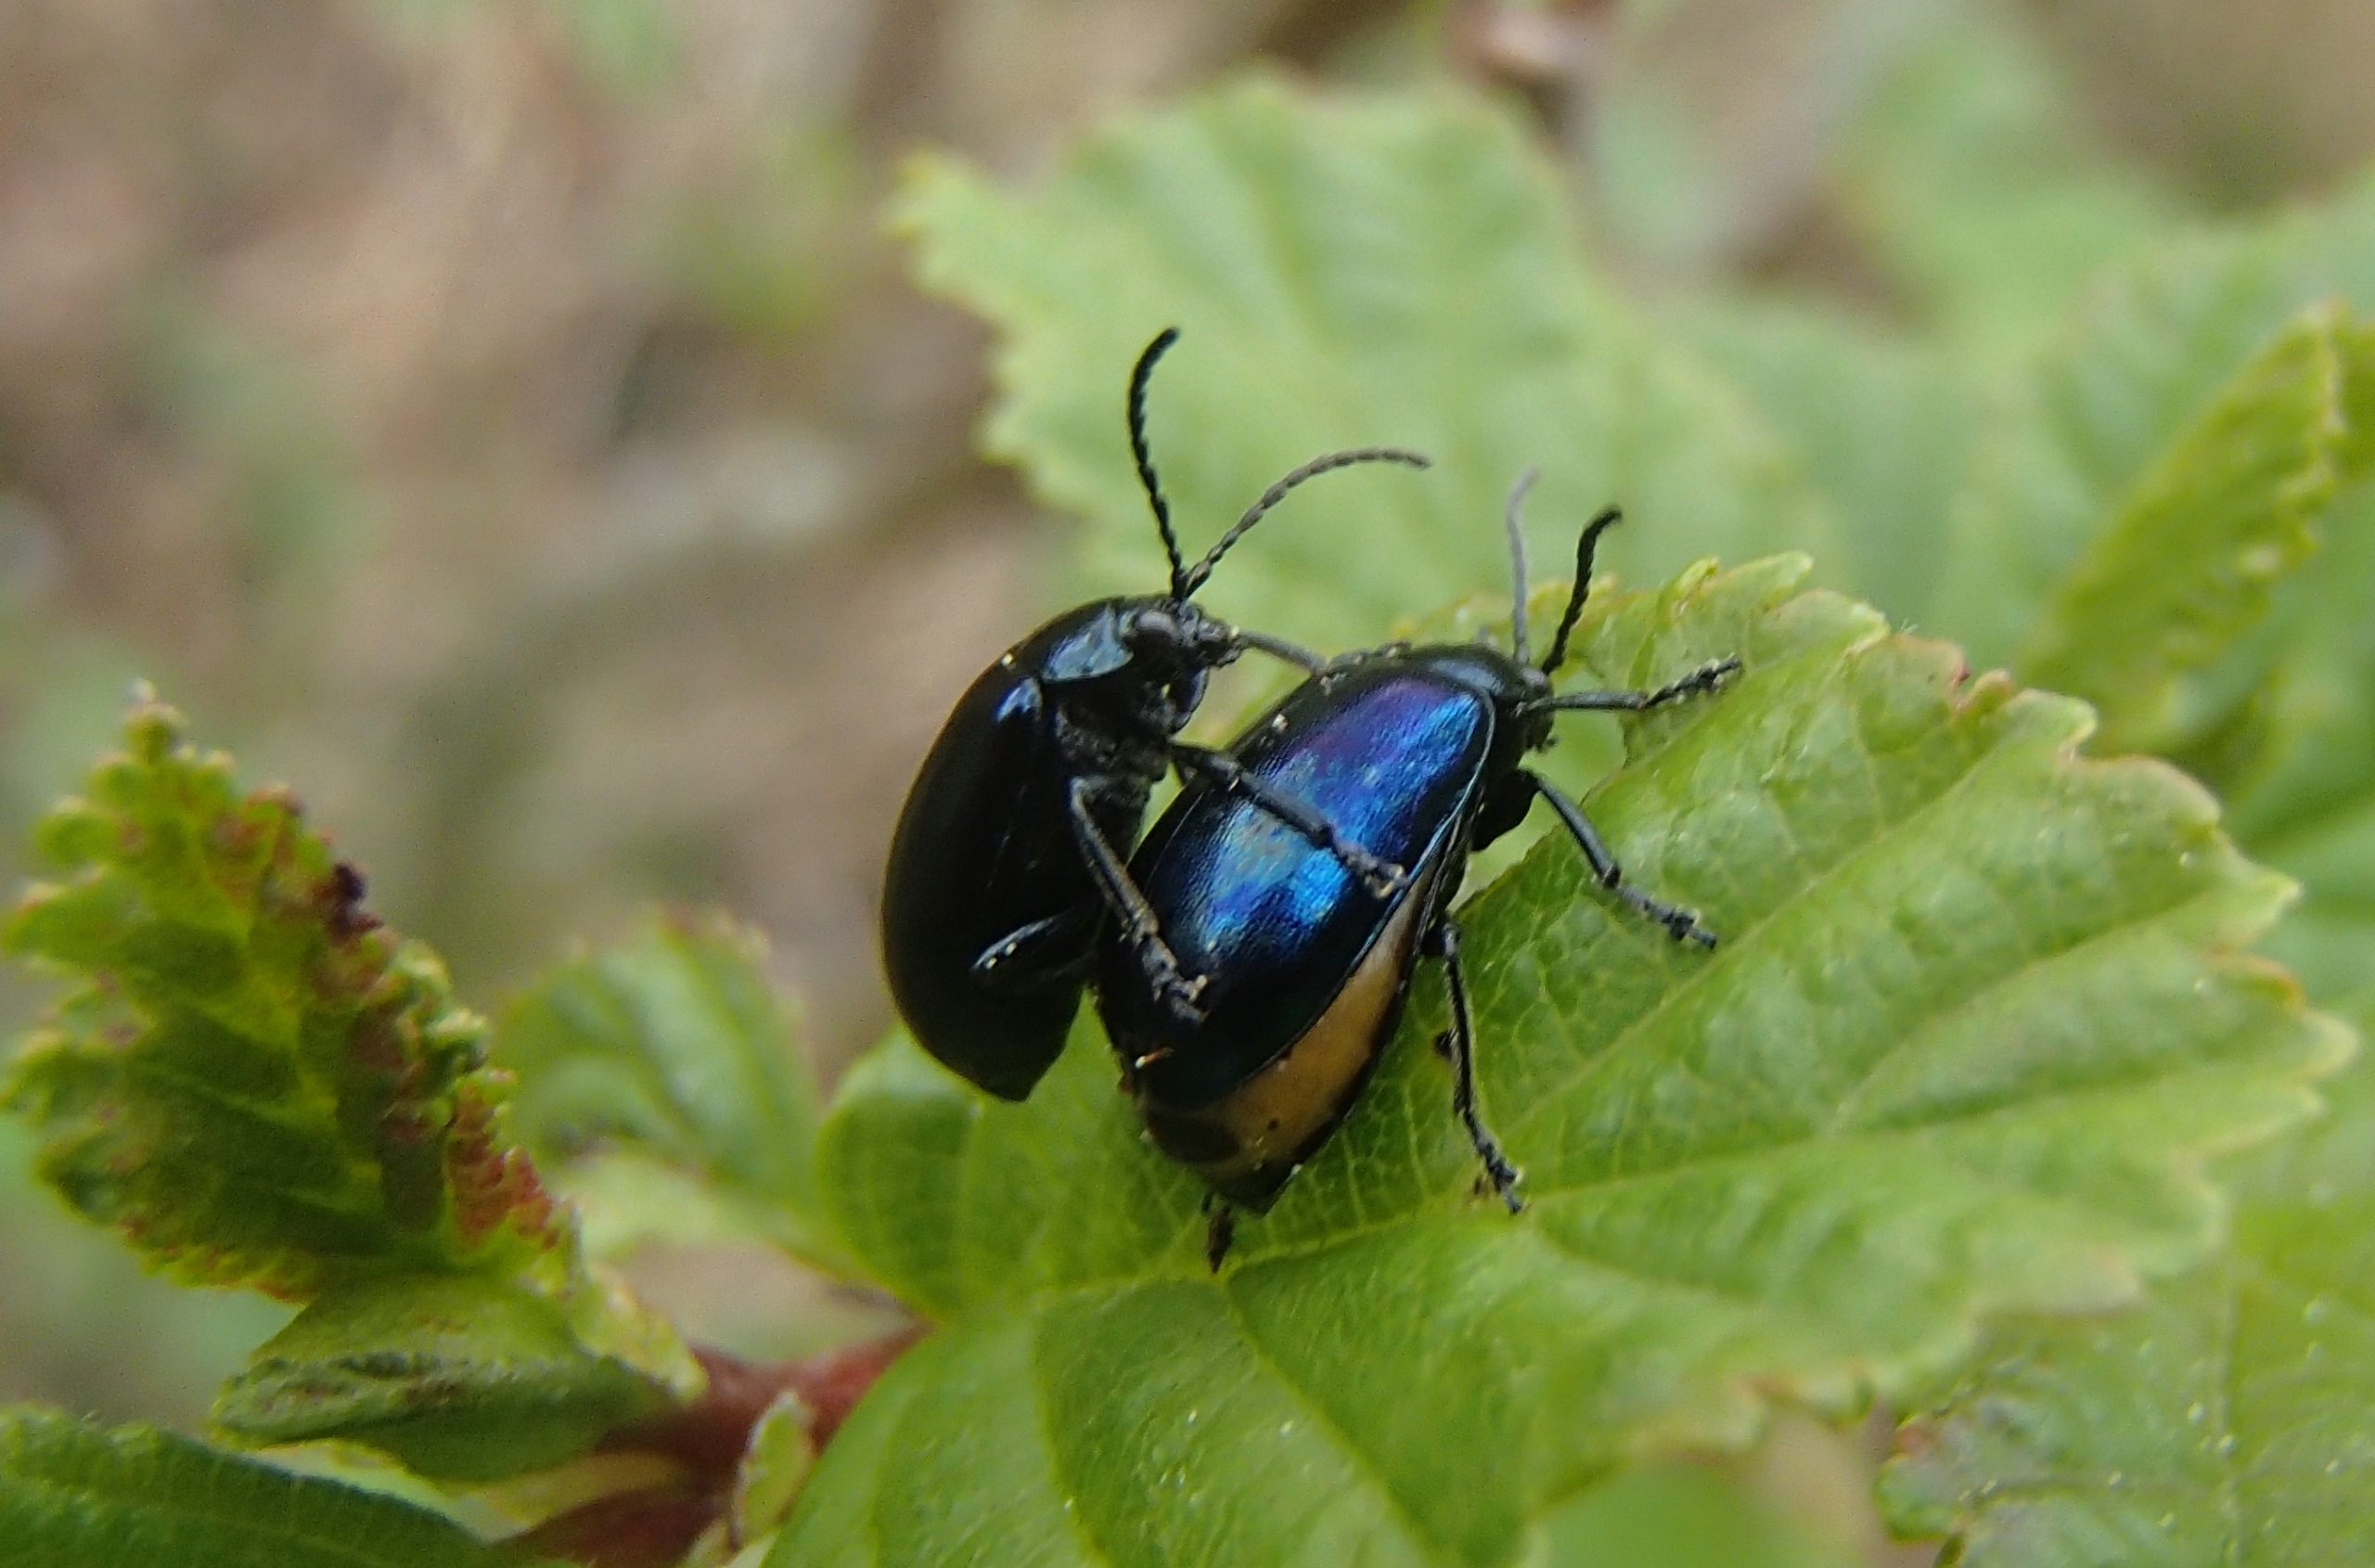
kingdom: Animalia
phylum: Arthropoda
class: Insecta
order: Coleoptera
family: Chrysomelidae
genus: Agelastica
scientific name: Agelastica alni
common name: Ellebladbille
